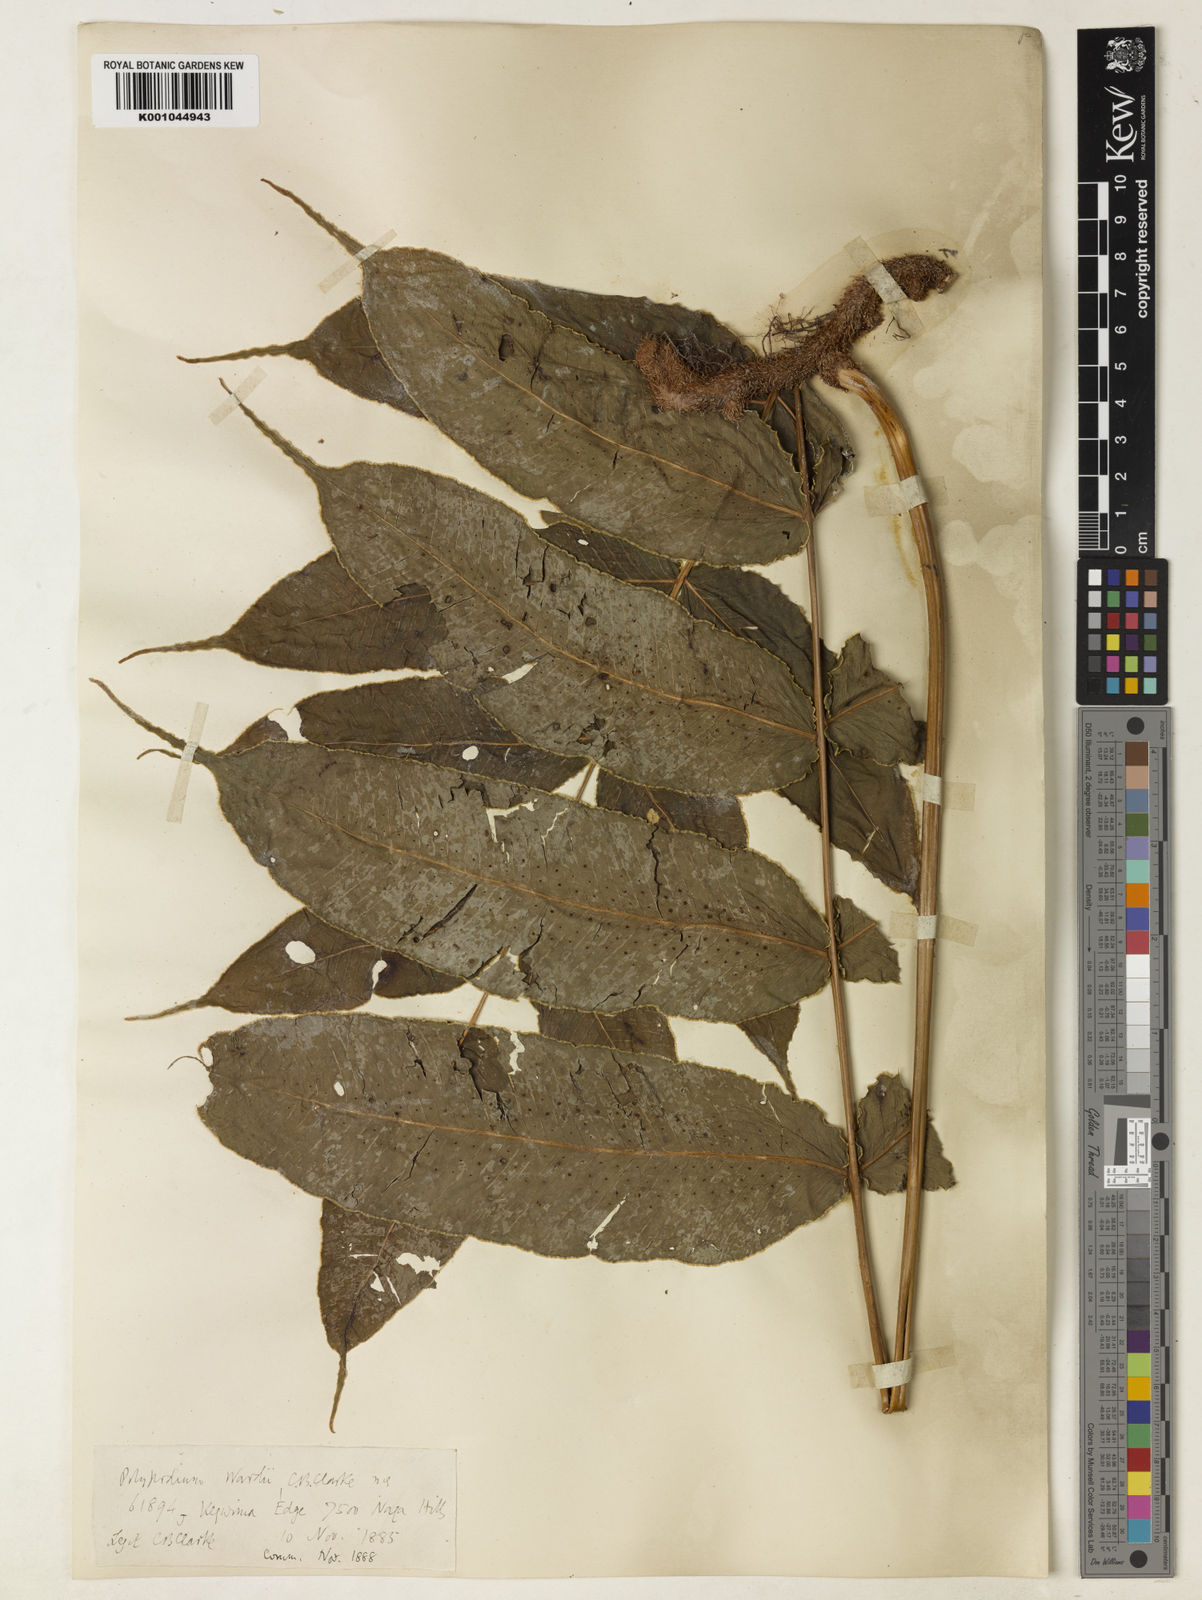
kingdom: Plantae
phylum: Tracheophyta
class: Polypodiopsida
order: Polypodiales
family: Polypodiaceae
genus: Selliguea
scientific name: Selliguea wardii
